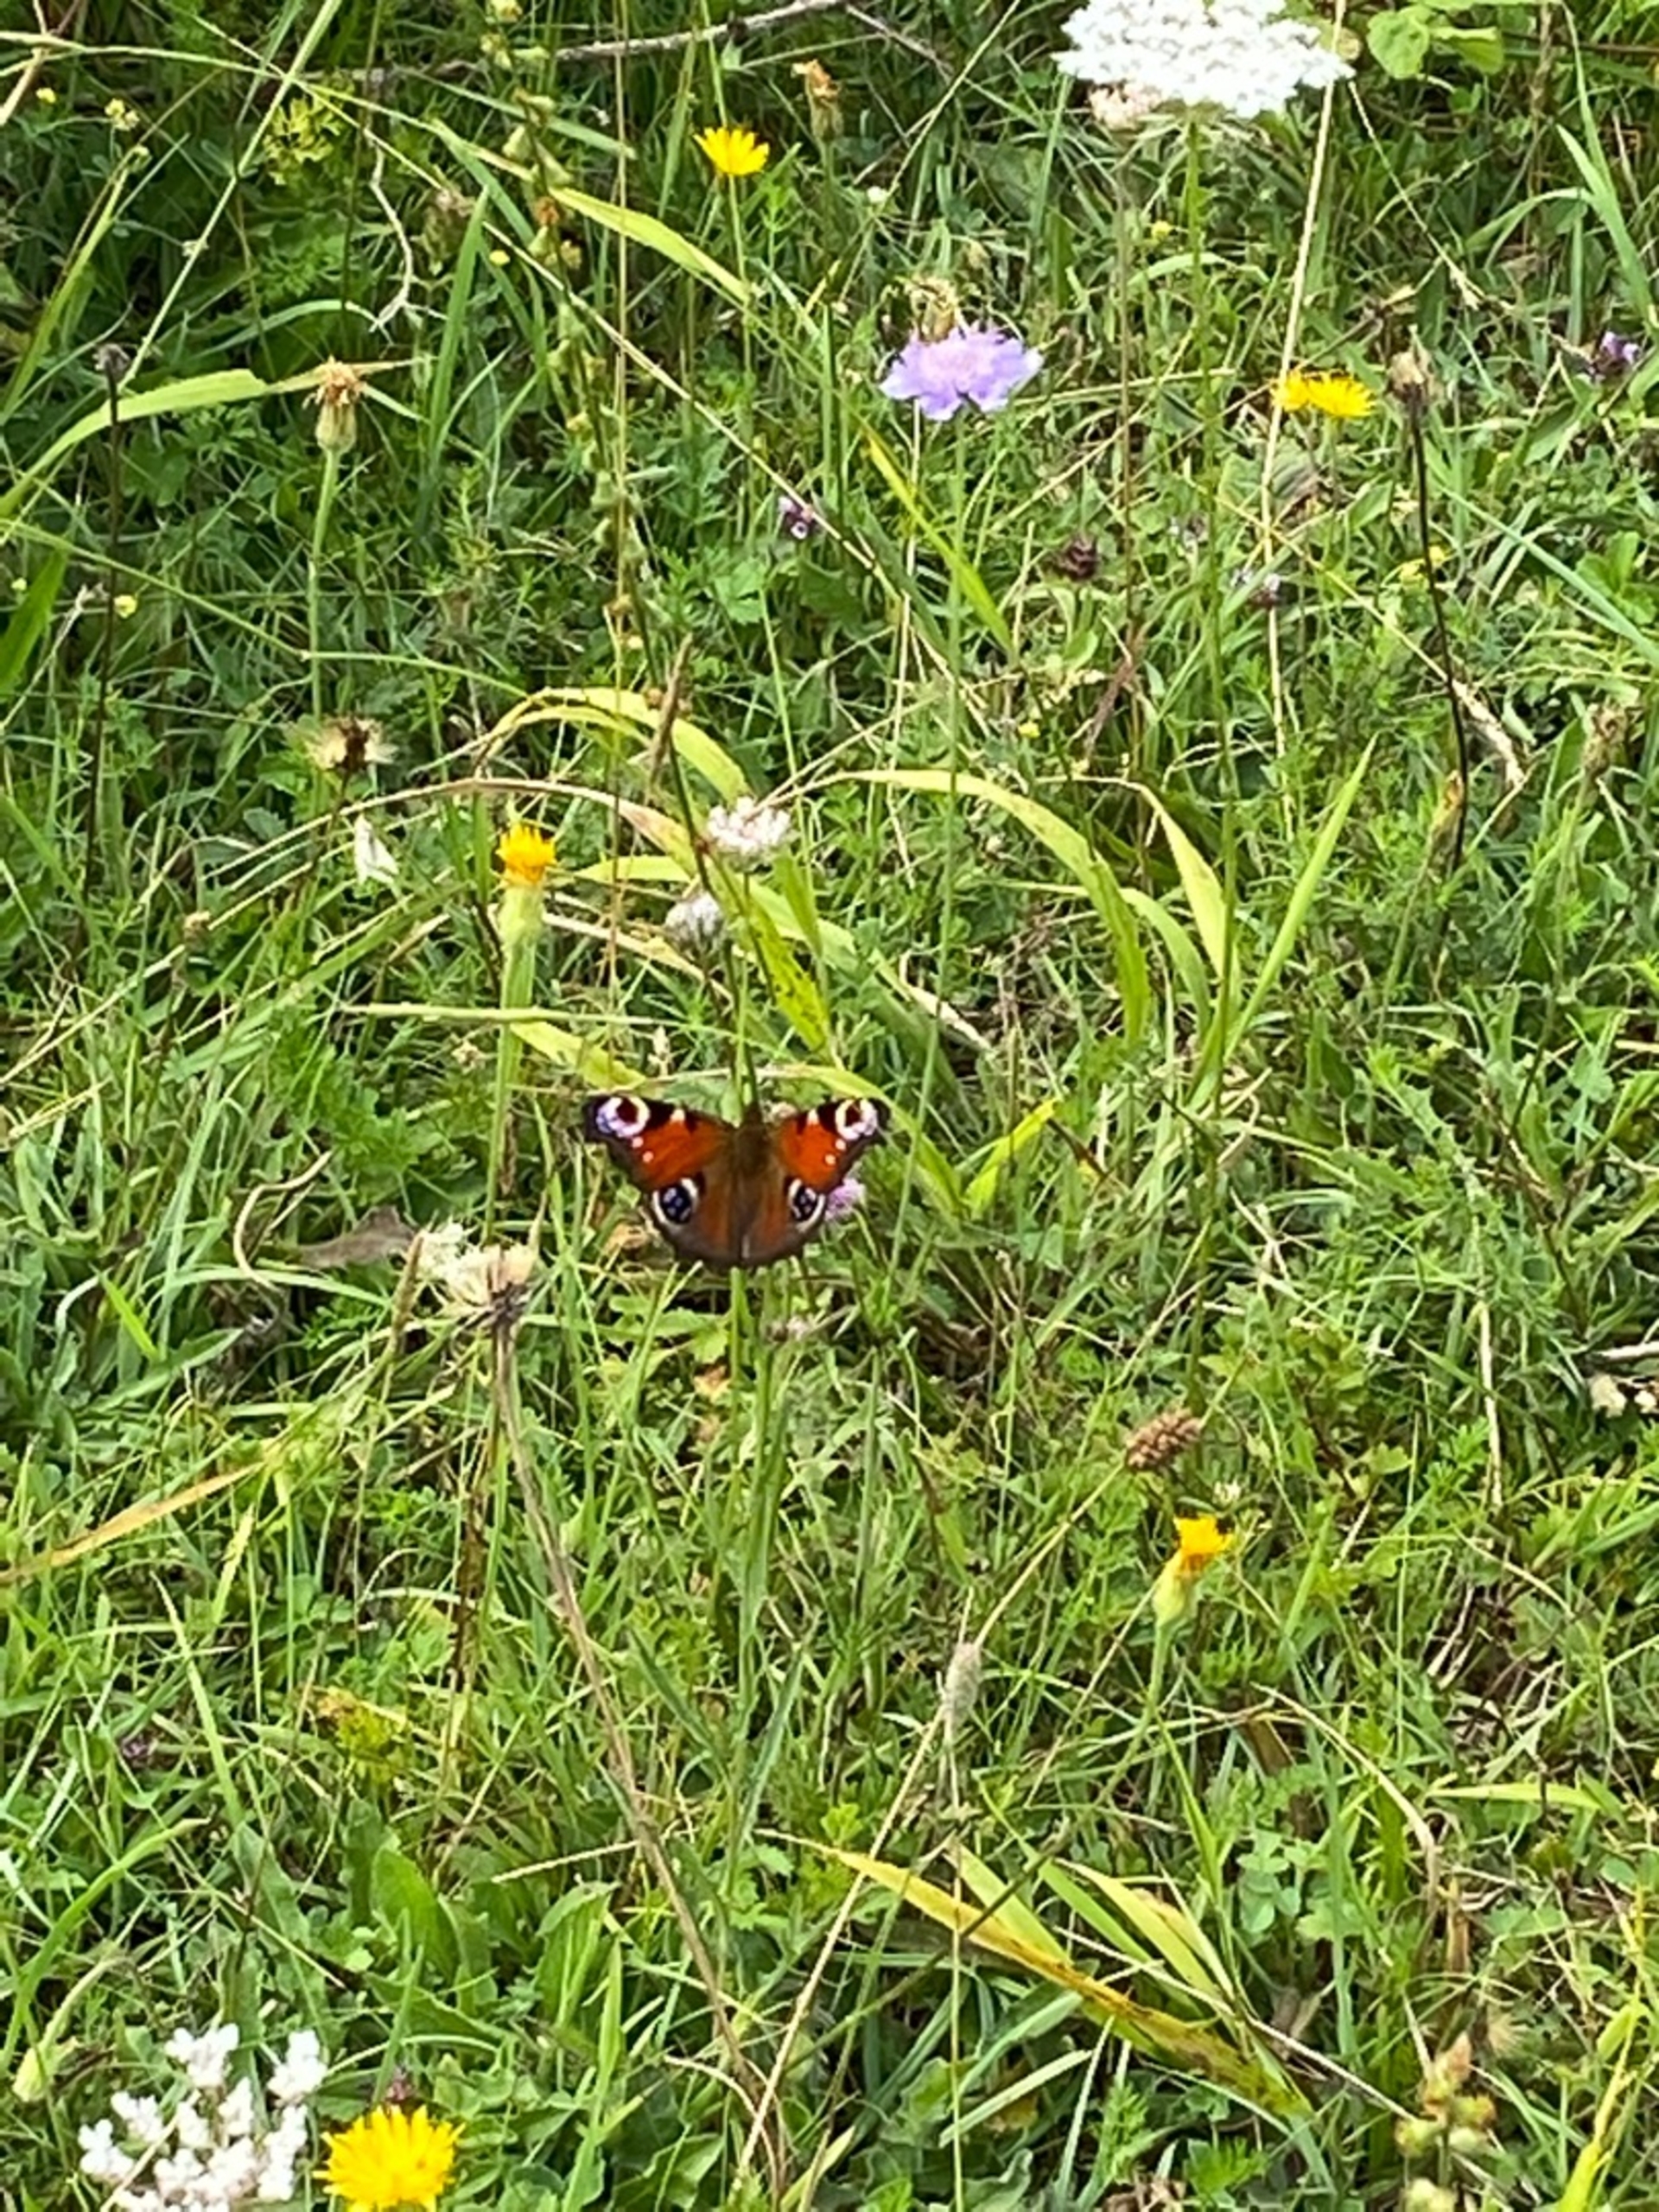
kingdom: Animalia
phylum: Arthropoda
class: Insecta
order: Lepidoptera
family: Nymphalidae
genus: Aglais
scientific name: Aglais io
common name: Dagpåfugleøje
